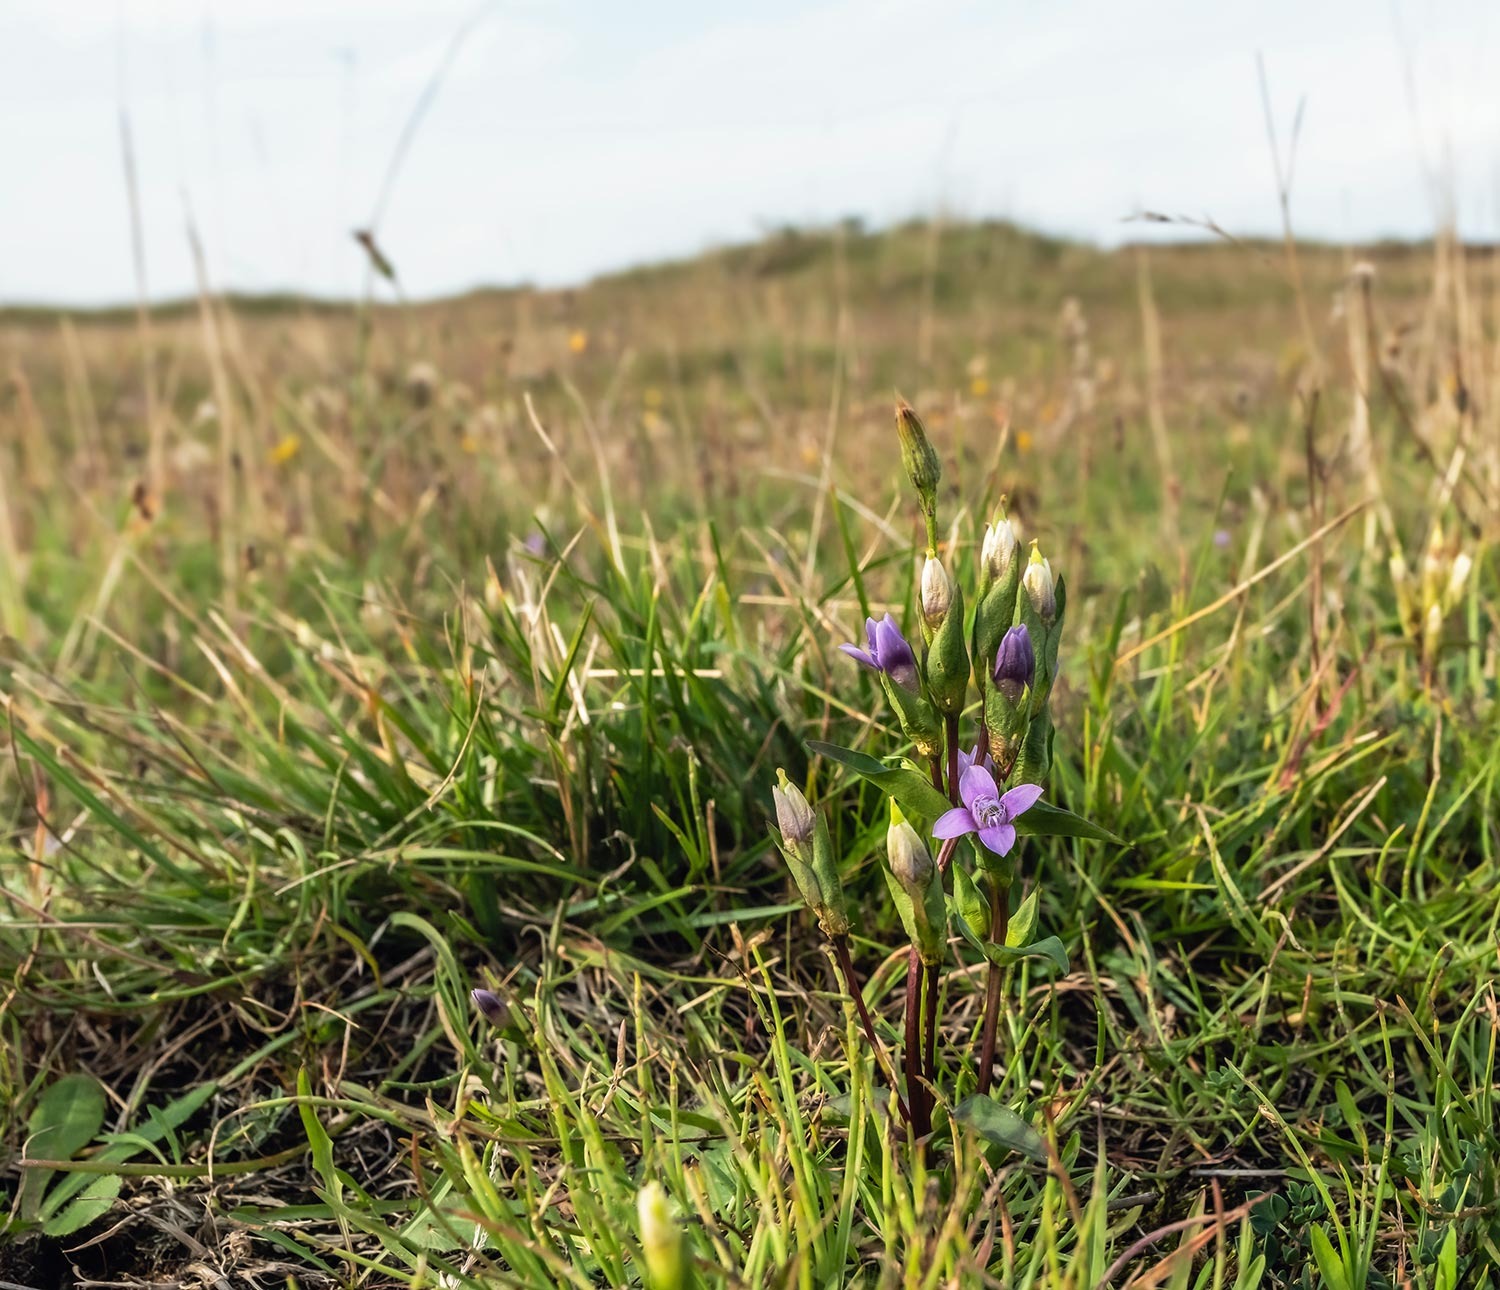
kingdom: Plantae
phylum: Tracheophyta
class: Magnoliopsida
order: Gentianales
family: Gentianaceae
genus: Gentianella
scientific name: Gentianella campestris
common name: Baltisk ensian
